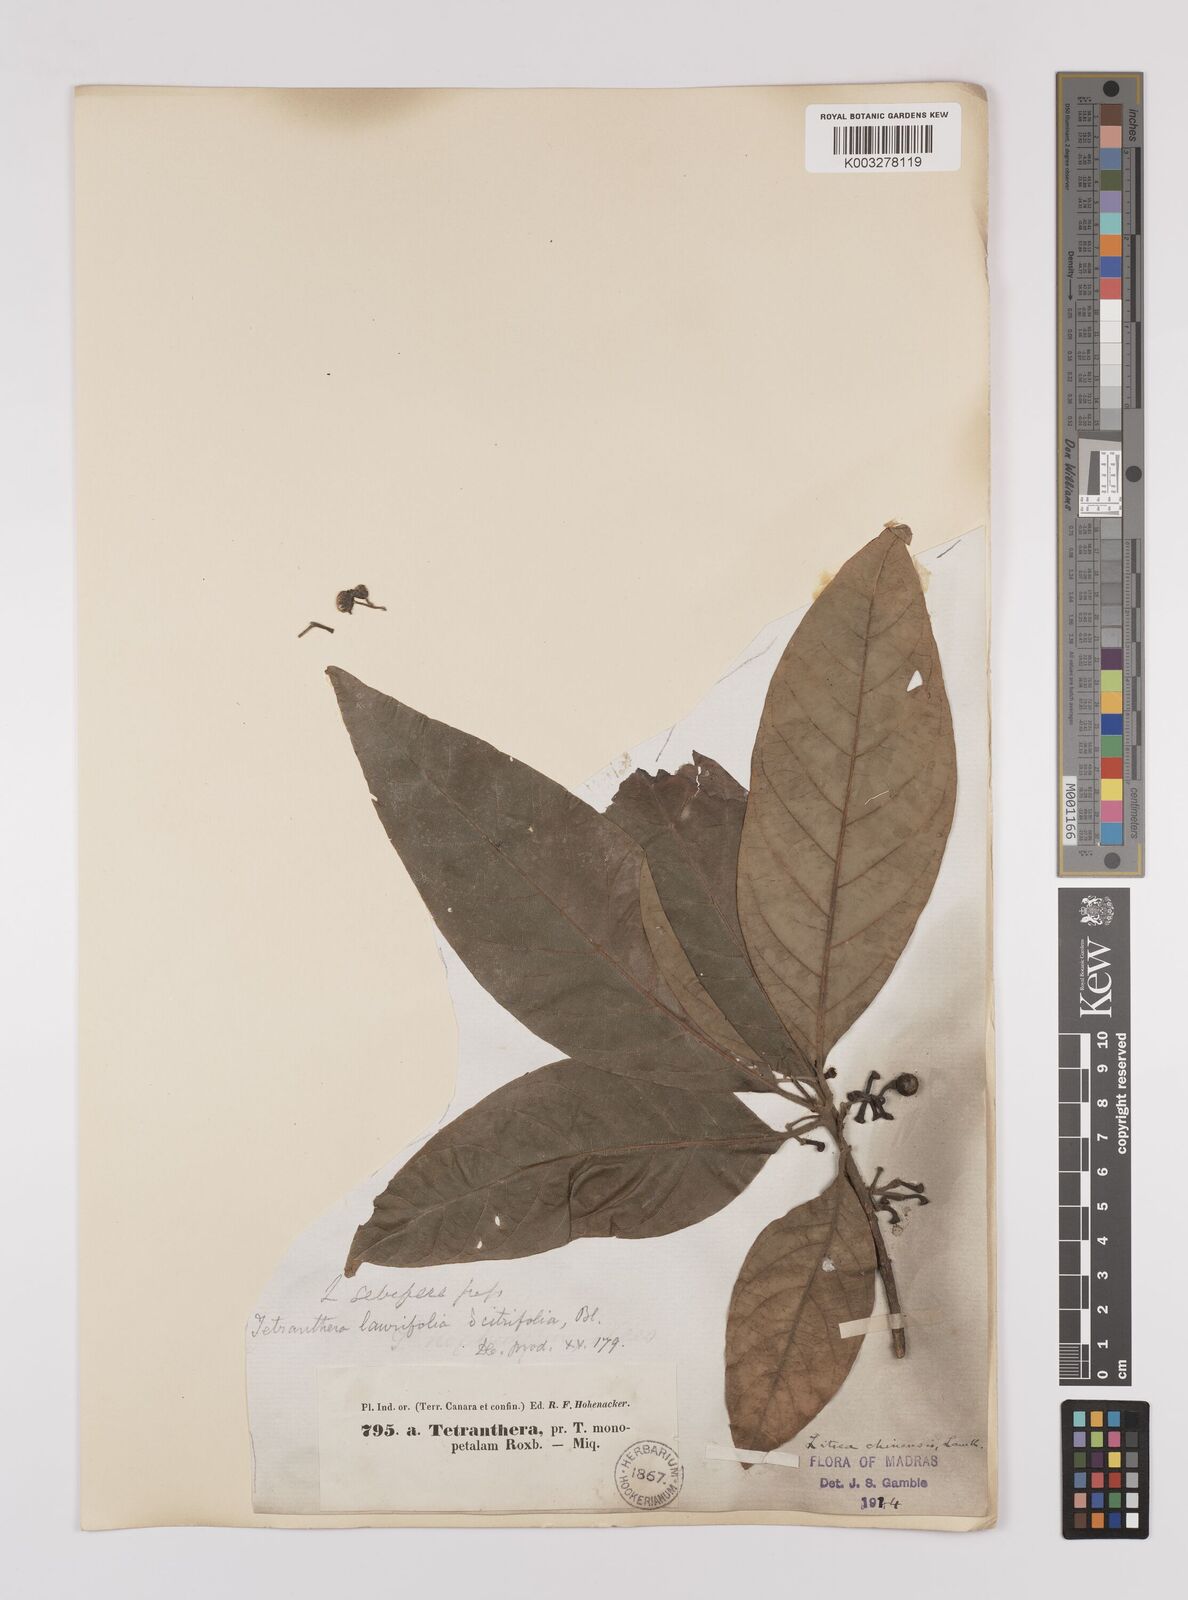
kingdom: Plantae
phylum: Tracheophyta
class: Magnoliopsida
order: Laurales
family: Lauraceae
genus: Litsea
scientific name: Litsea
